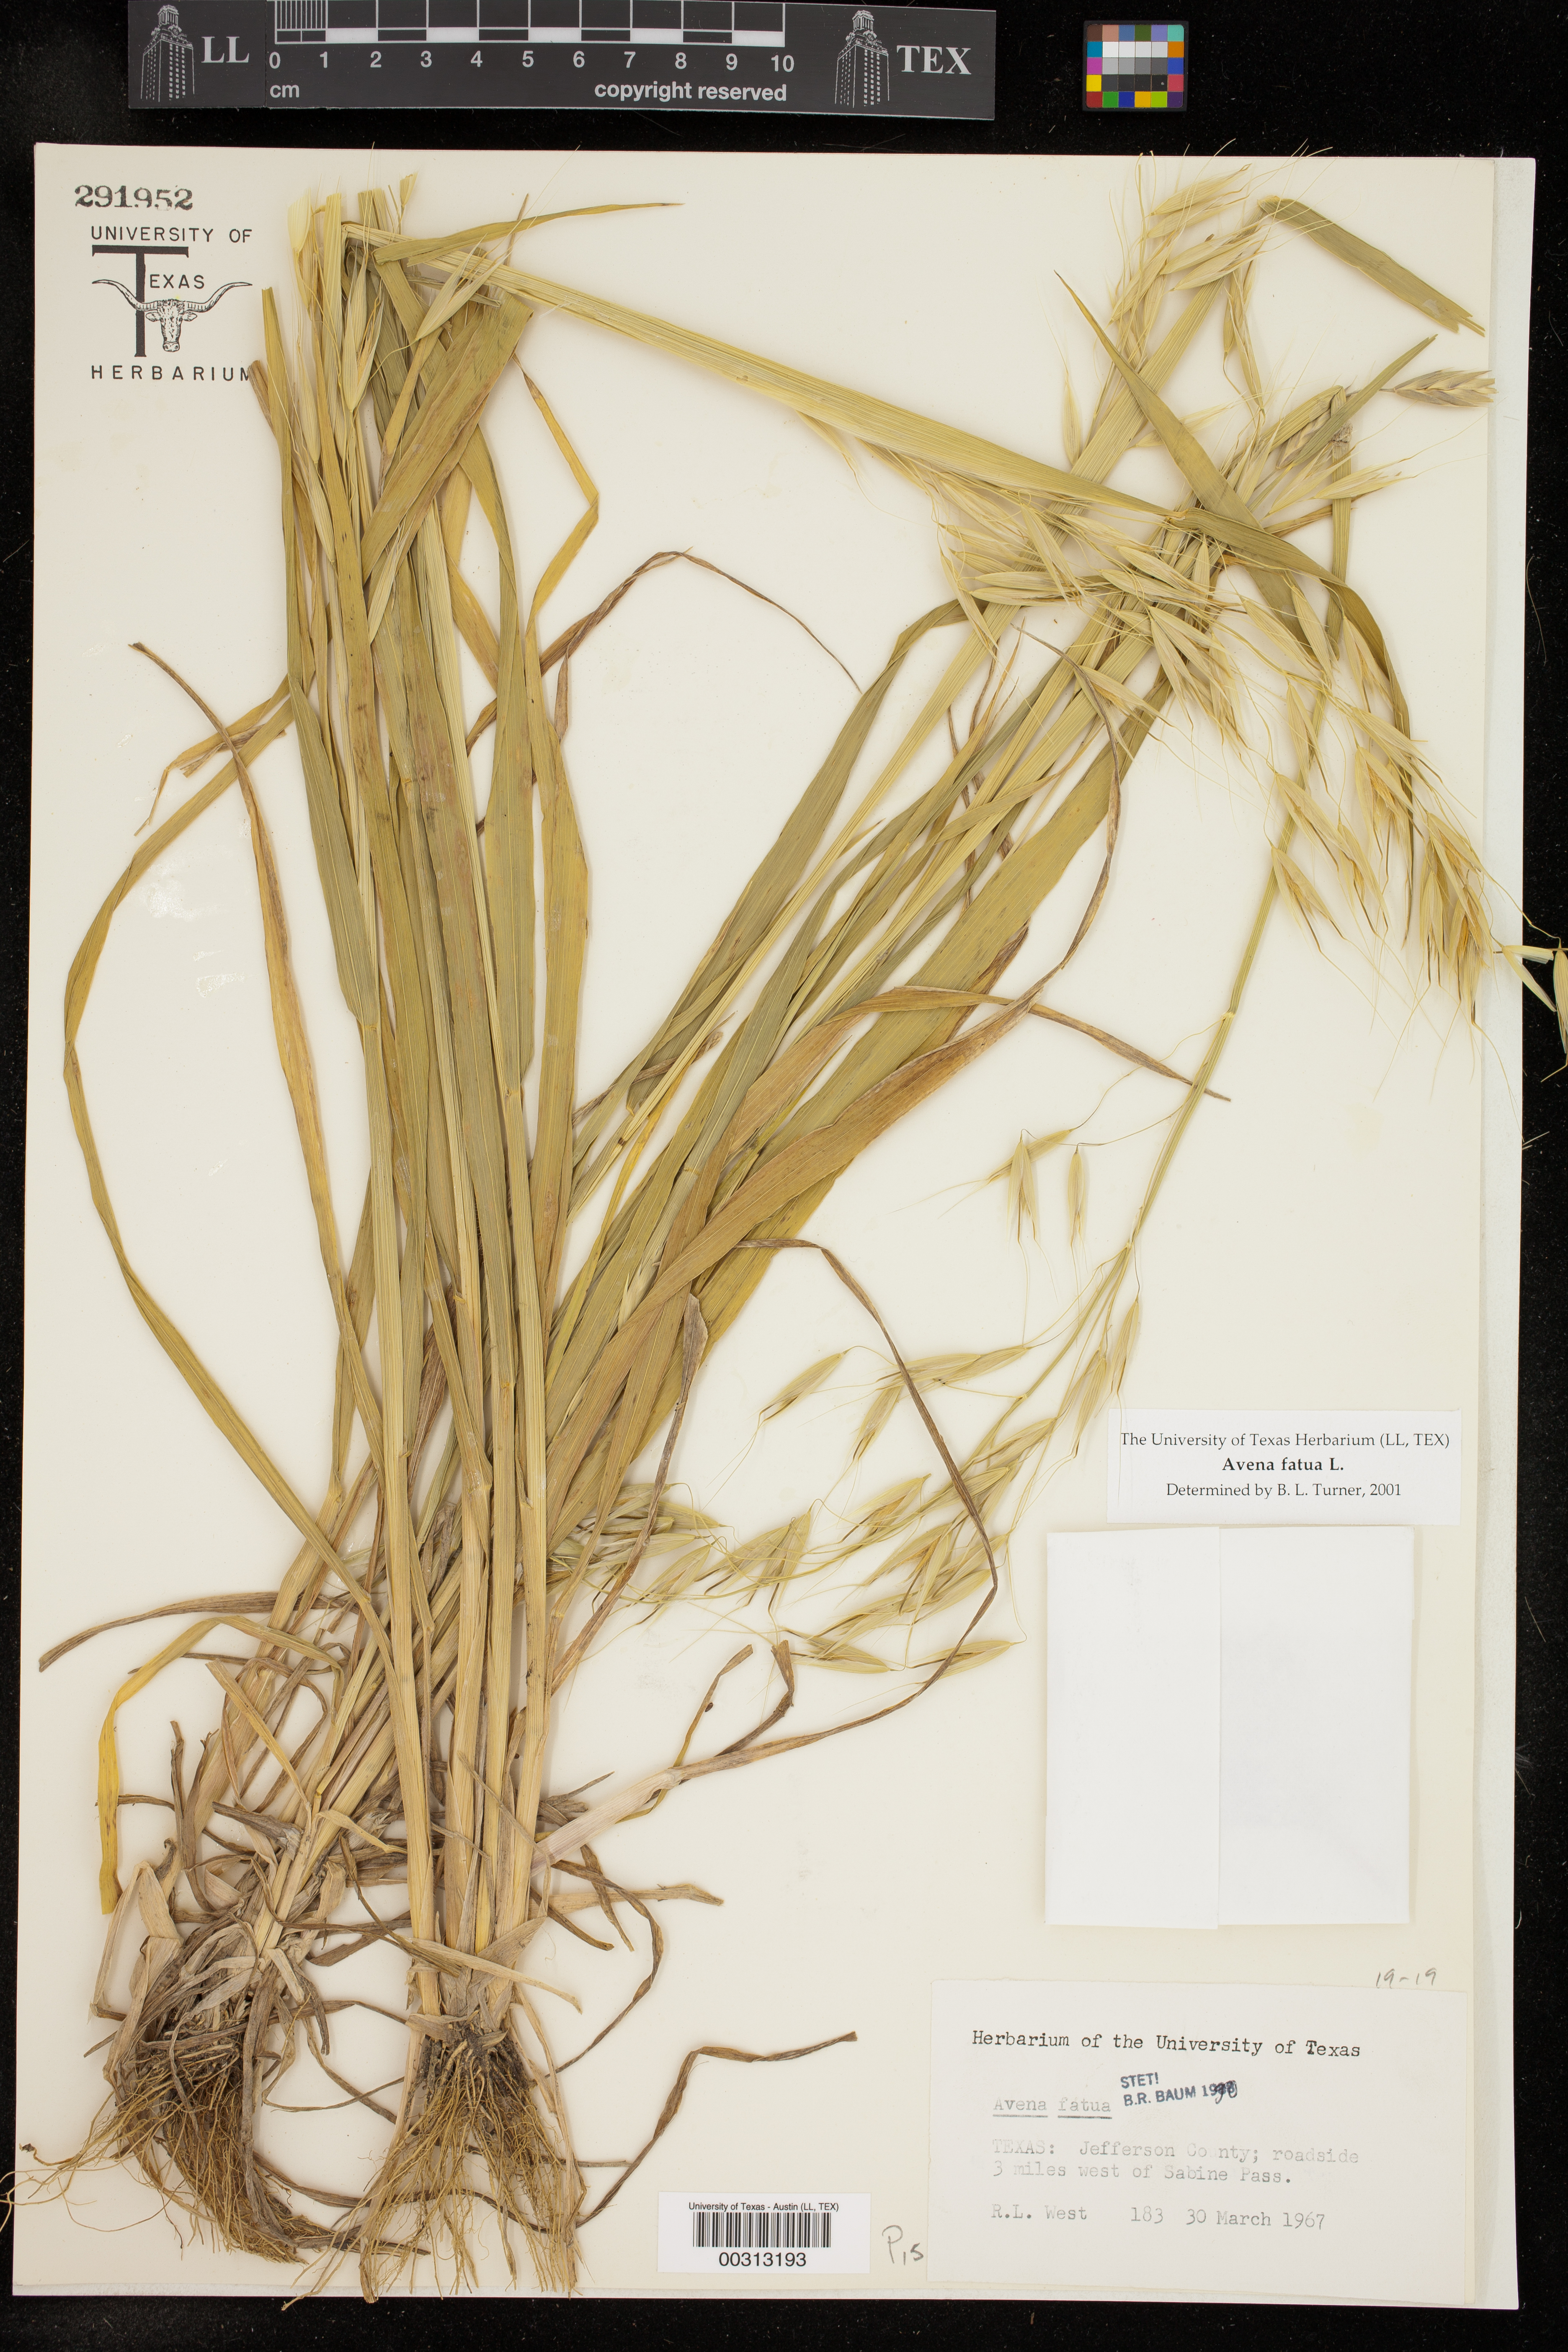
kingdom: Plantae
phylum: Tracheophyta
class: Liliopsida
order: Poales
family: Poaceae
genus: Avena
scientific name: Avena fatua
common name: Wild oat
